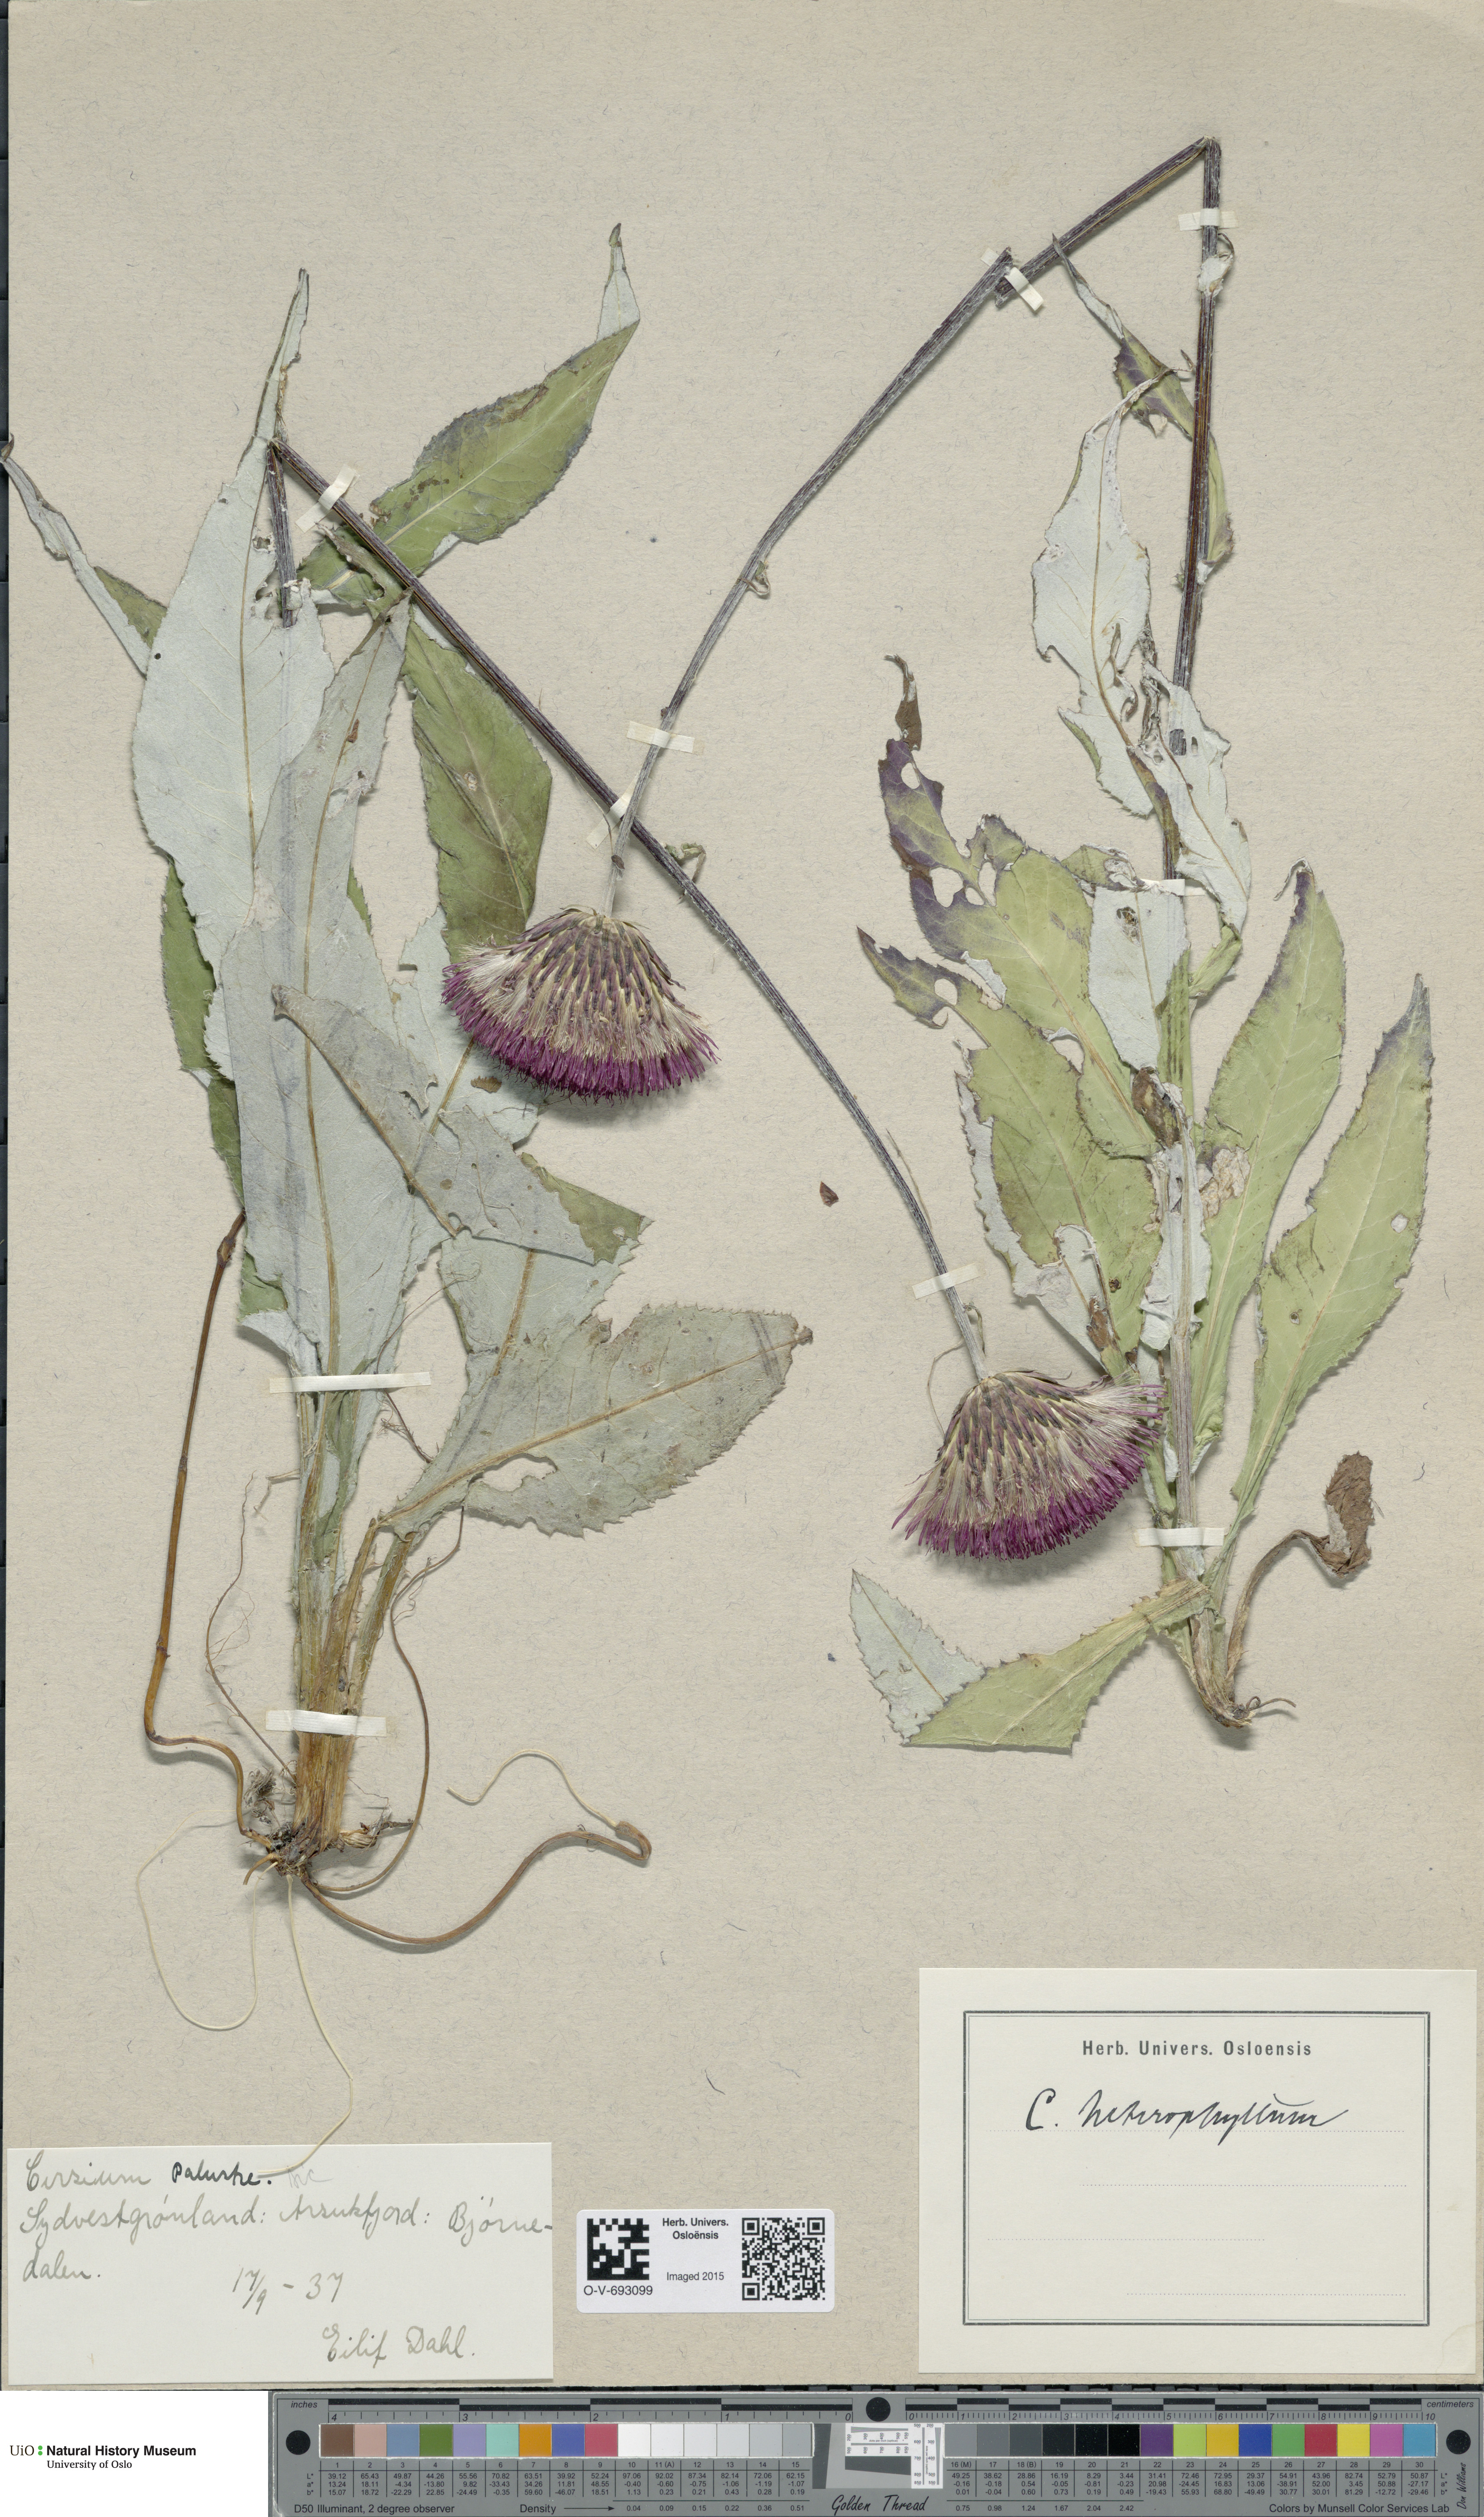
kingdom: Plantae
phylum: Tracheophyta
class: Magnoliopsida
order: Asterales
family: Asteraceae
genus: Cirsium
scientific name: Cirsium palustre
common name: Marsh thistle
